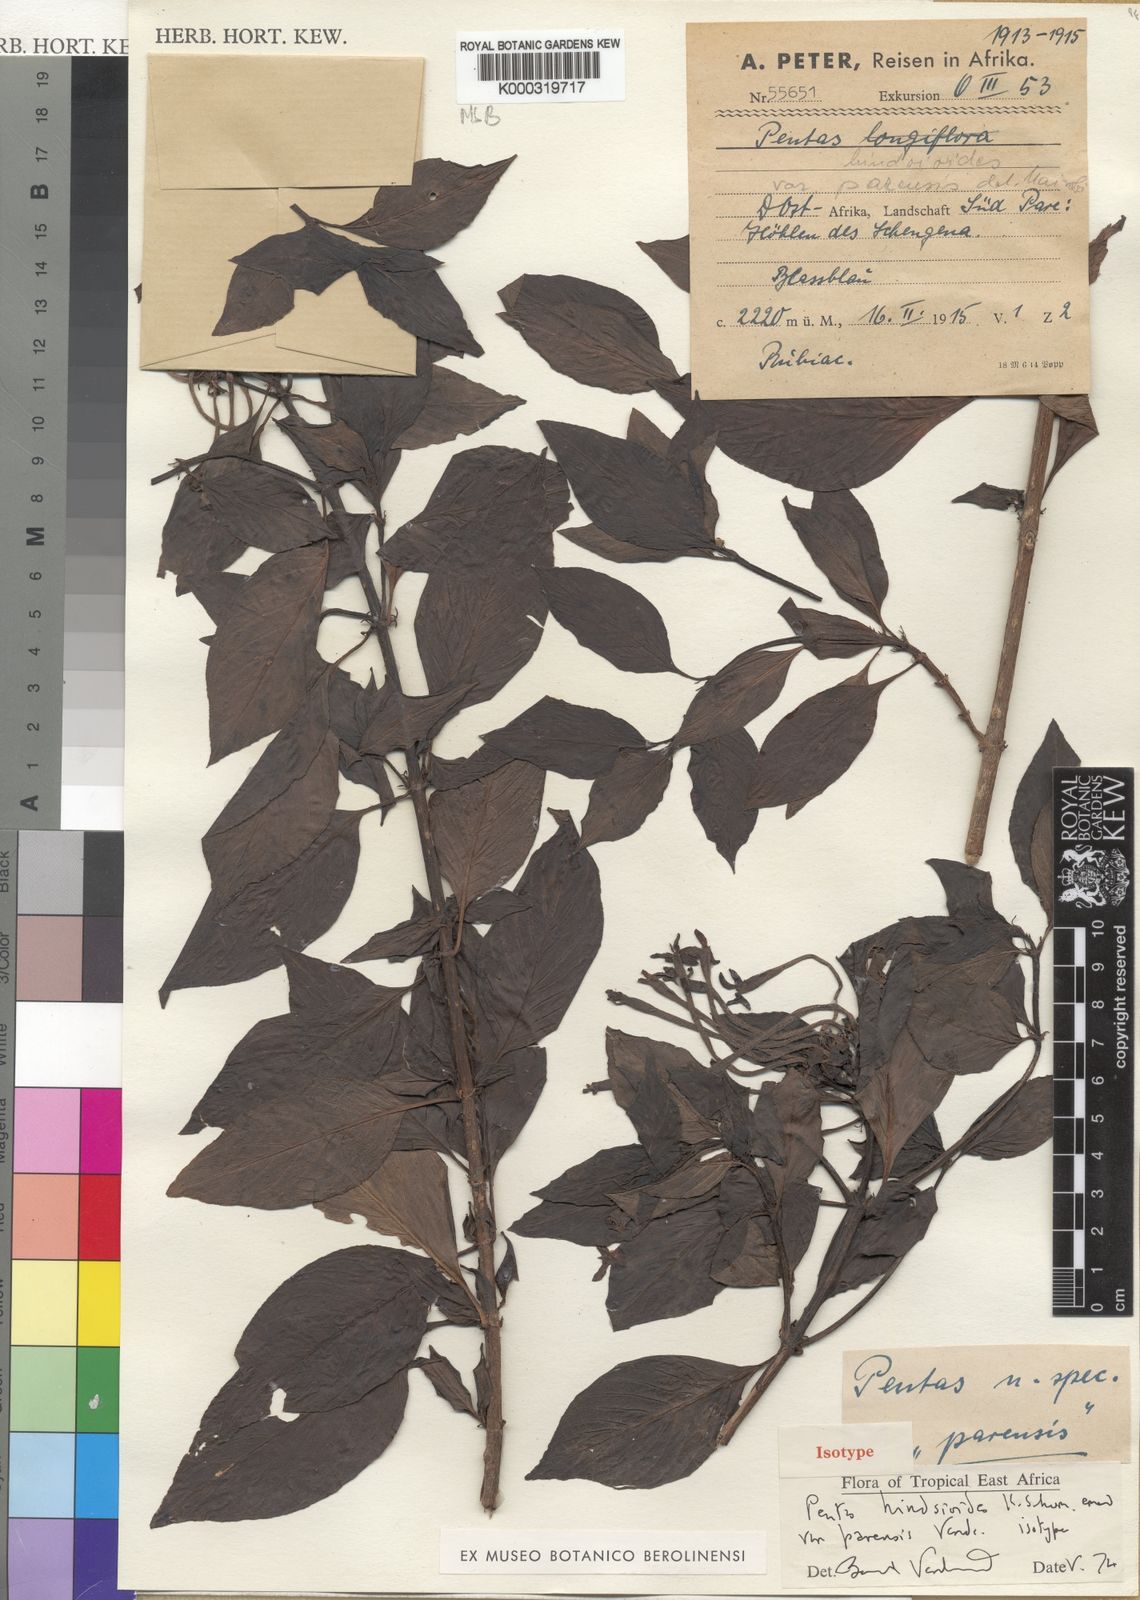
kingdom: Plantae
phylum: Tracheophyta
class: Magnoliopsida
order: Gentianales
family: Rubiaceae
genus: Chamaepentas
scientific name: Chamaepentas hindsioides
